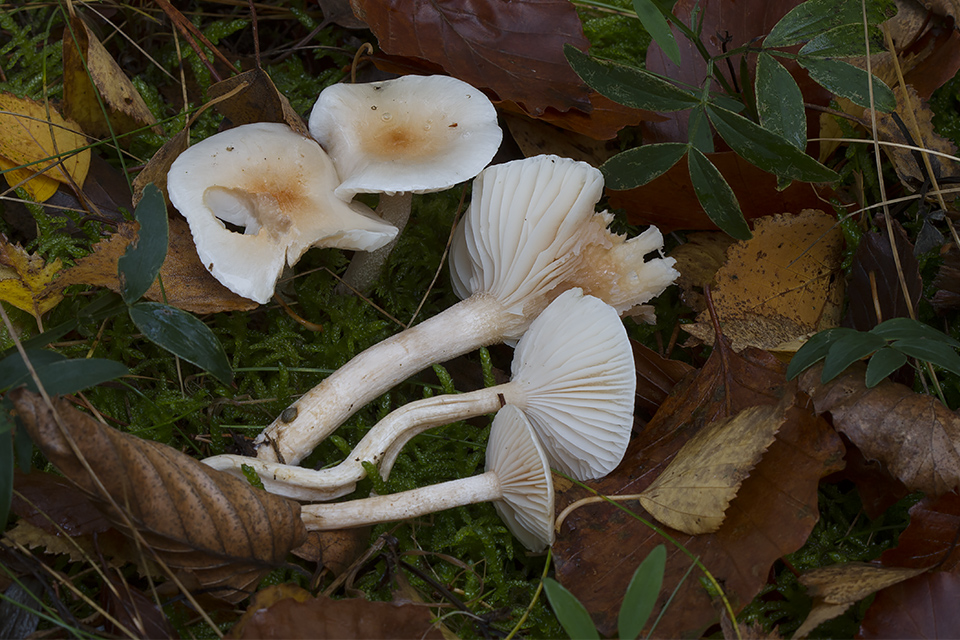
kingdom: Fungi
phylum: Basidiomycota
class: Agaricomycetes
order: Agaricales
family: Hygrophoraceae
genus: Hygrophorus
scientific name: Hygrophorus unicolor
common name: orangeøjet sneglehat
